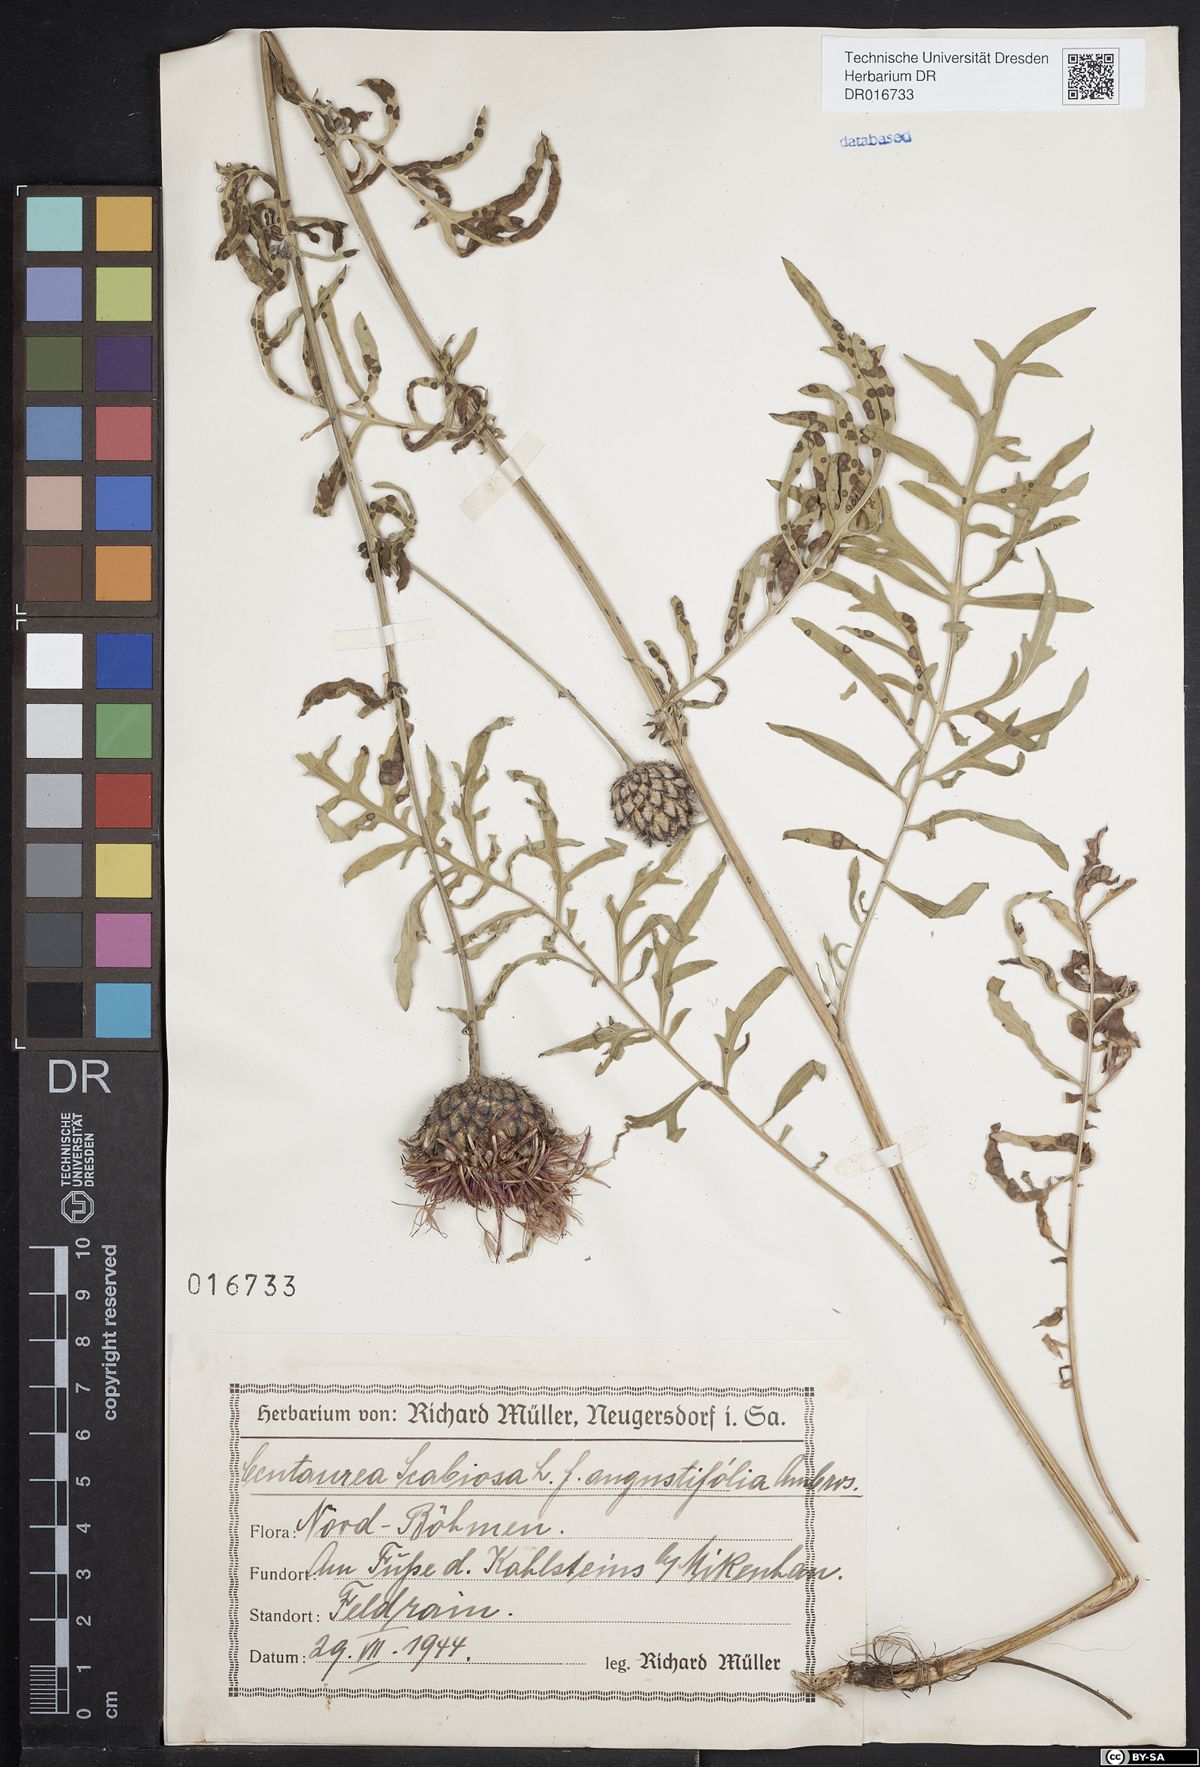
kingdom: Plantae
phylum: Tracheophyta
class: Magnoliopsida
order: Asterales
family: Asteraceae
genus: Centaurea
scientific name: Centaurea scabiosa
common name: Greater knapweed
